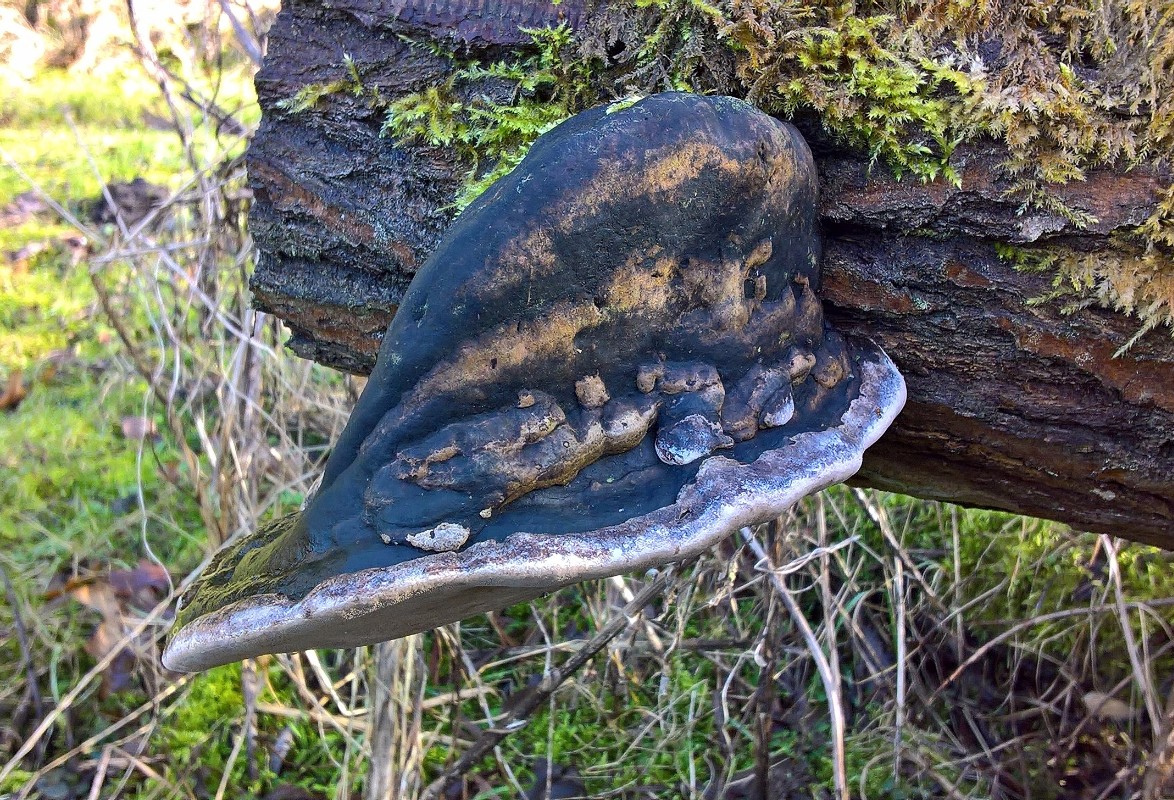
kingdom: Fungi
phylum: Basidiomycota
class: Agaricomycetes
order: Hymenochaetales
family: Hymenochaetaceae
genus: Phellinus
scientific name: Phellinus igniarius
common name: almindelig ildporesvamp
